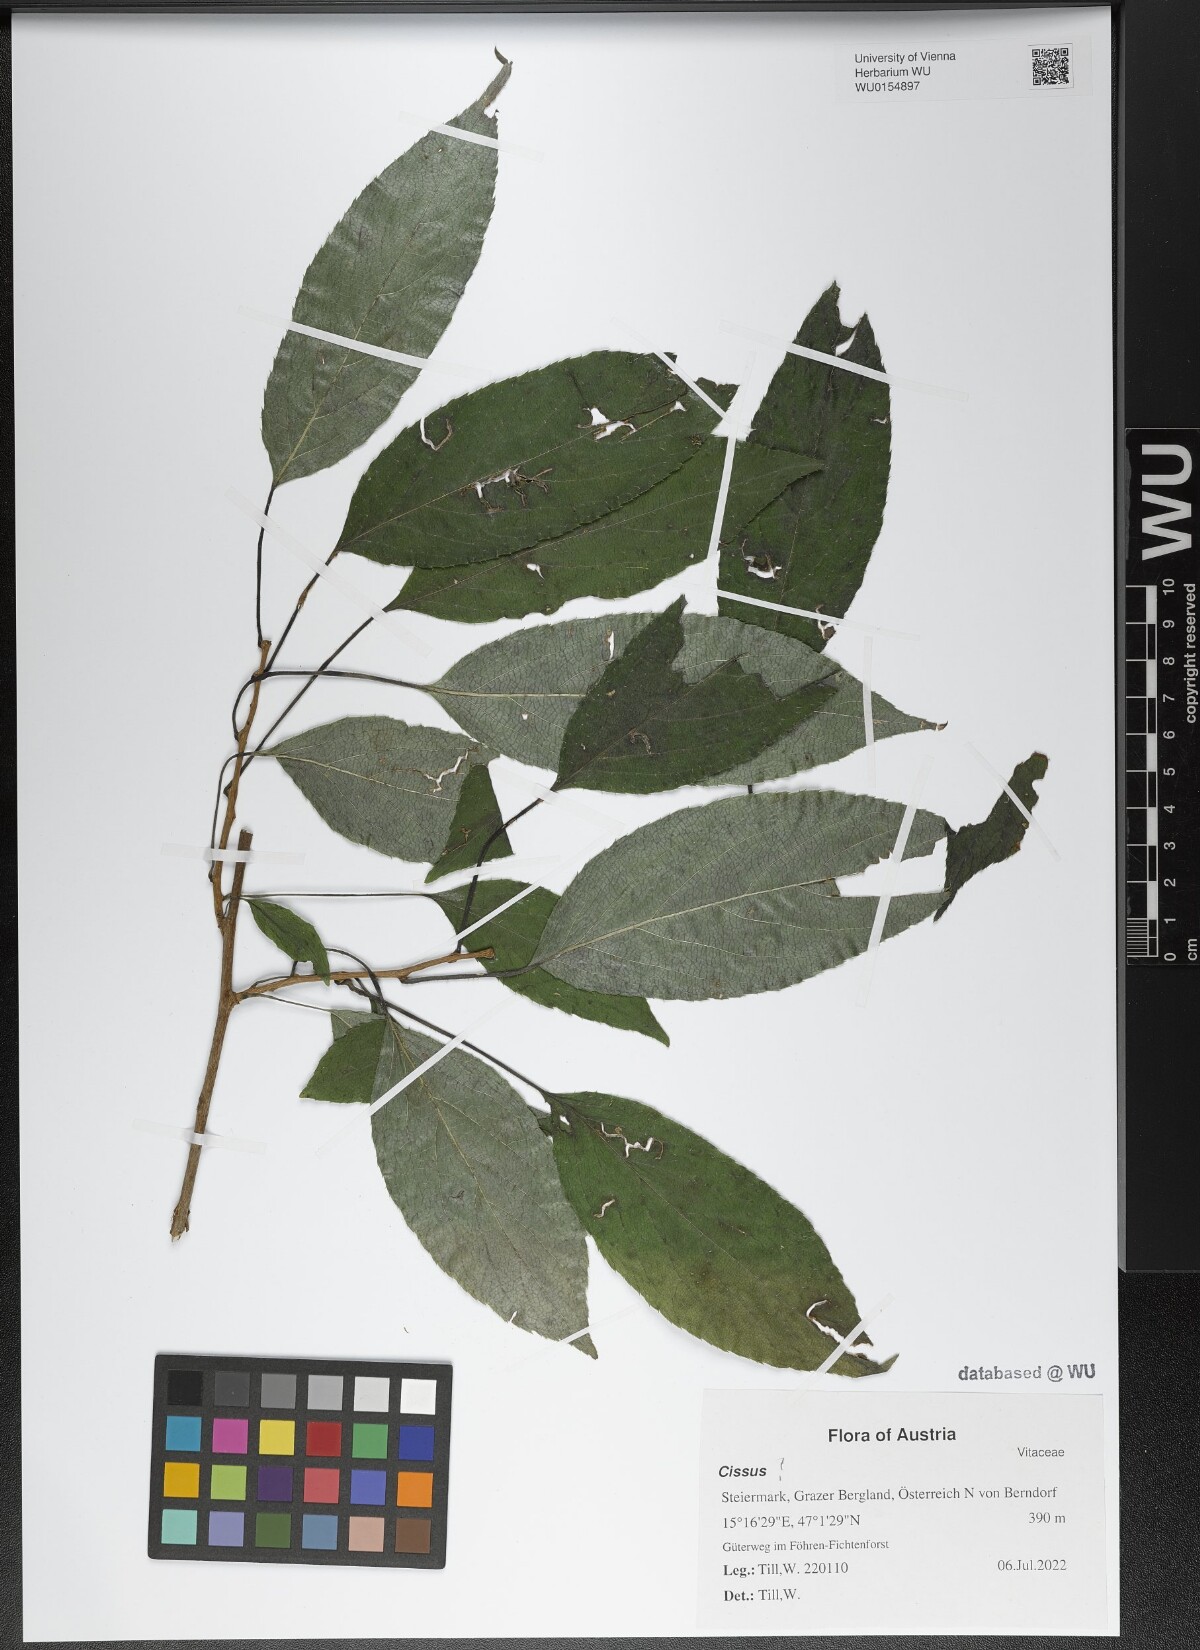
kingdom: Plantae
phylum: Tracheophyta
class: Magnoliopsida
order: Vitales
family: Vitaceae
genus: Cissus
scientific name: Cissus
